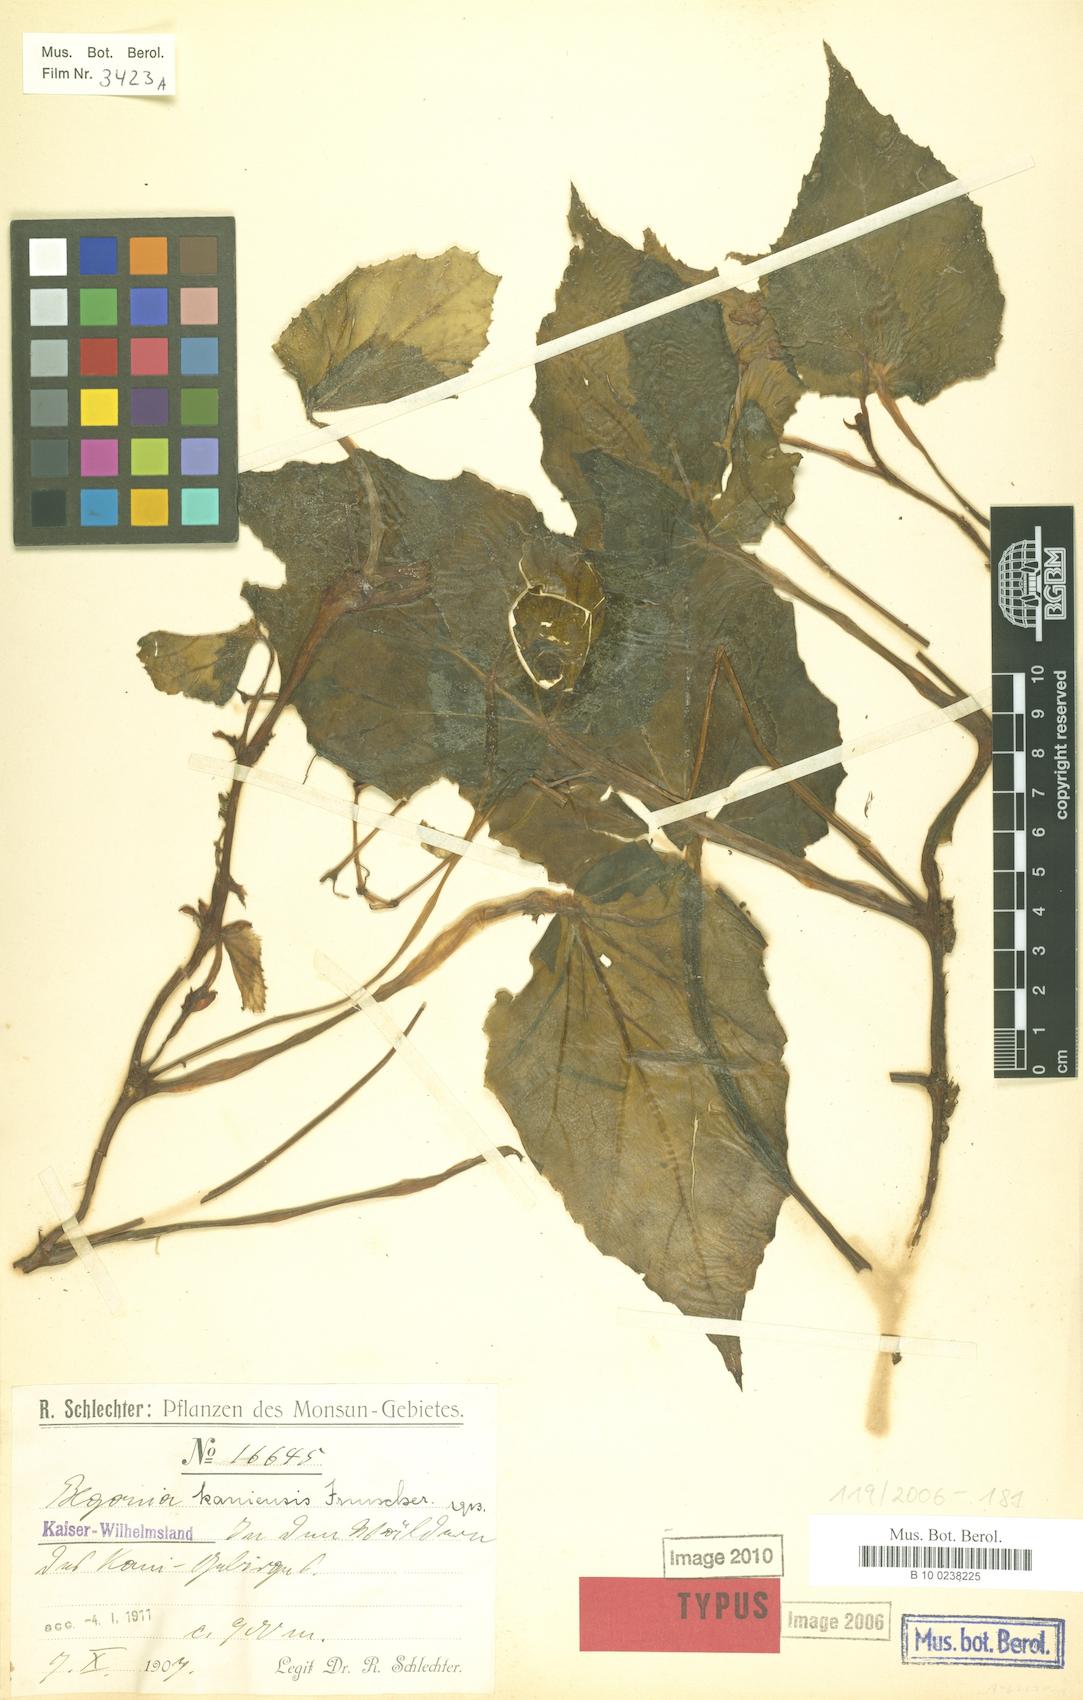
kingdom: Plantae
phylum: Tracheophyta
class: Magnoliopsida
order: Cucurbitales
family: Begoniaceae
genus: Begonia
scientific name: Begonia kaniensis
